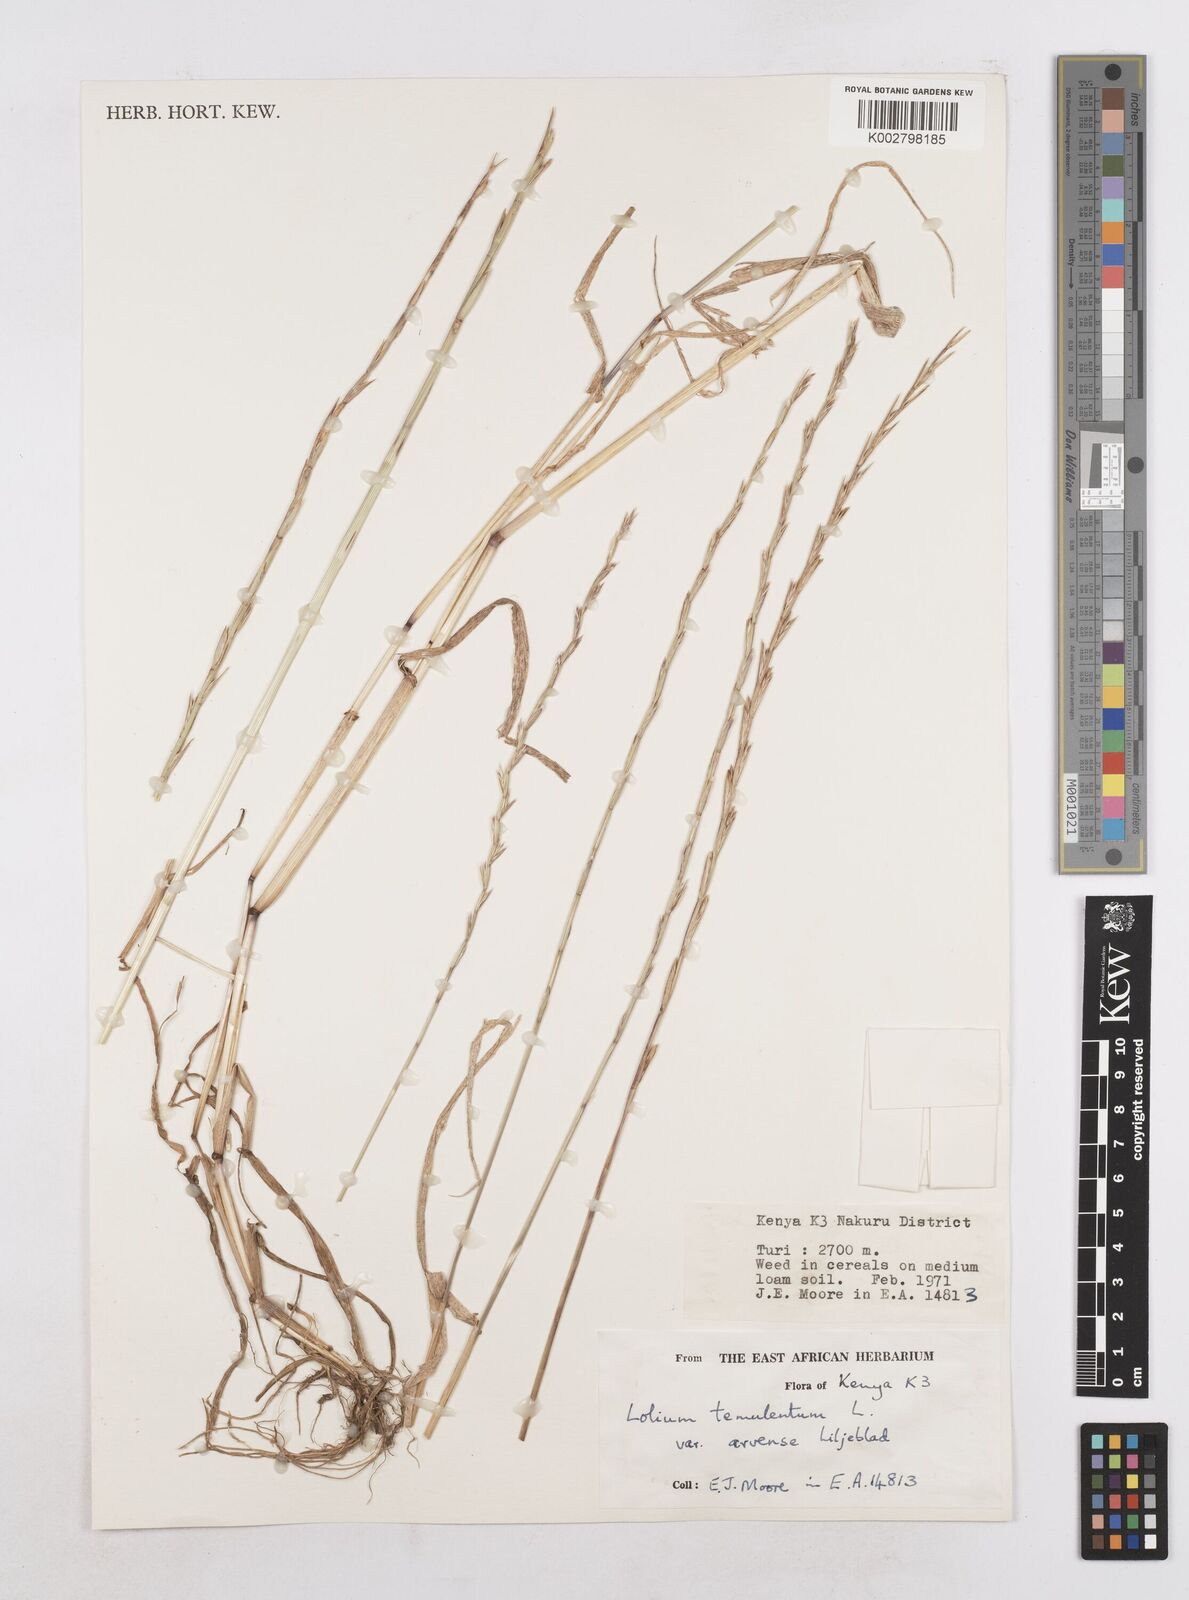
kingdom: Plantae
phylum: Tracheophyta
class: Liliopsida
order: Poales
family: Poaceae
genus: Lolium
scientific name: Lolium temulentum
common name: Darnel
